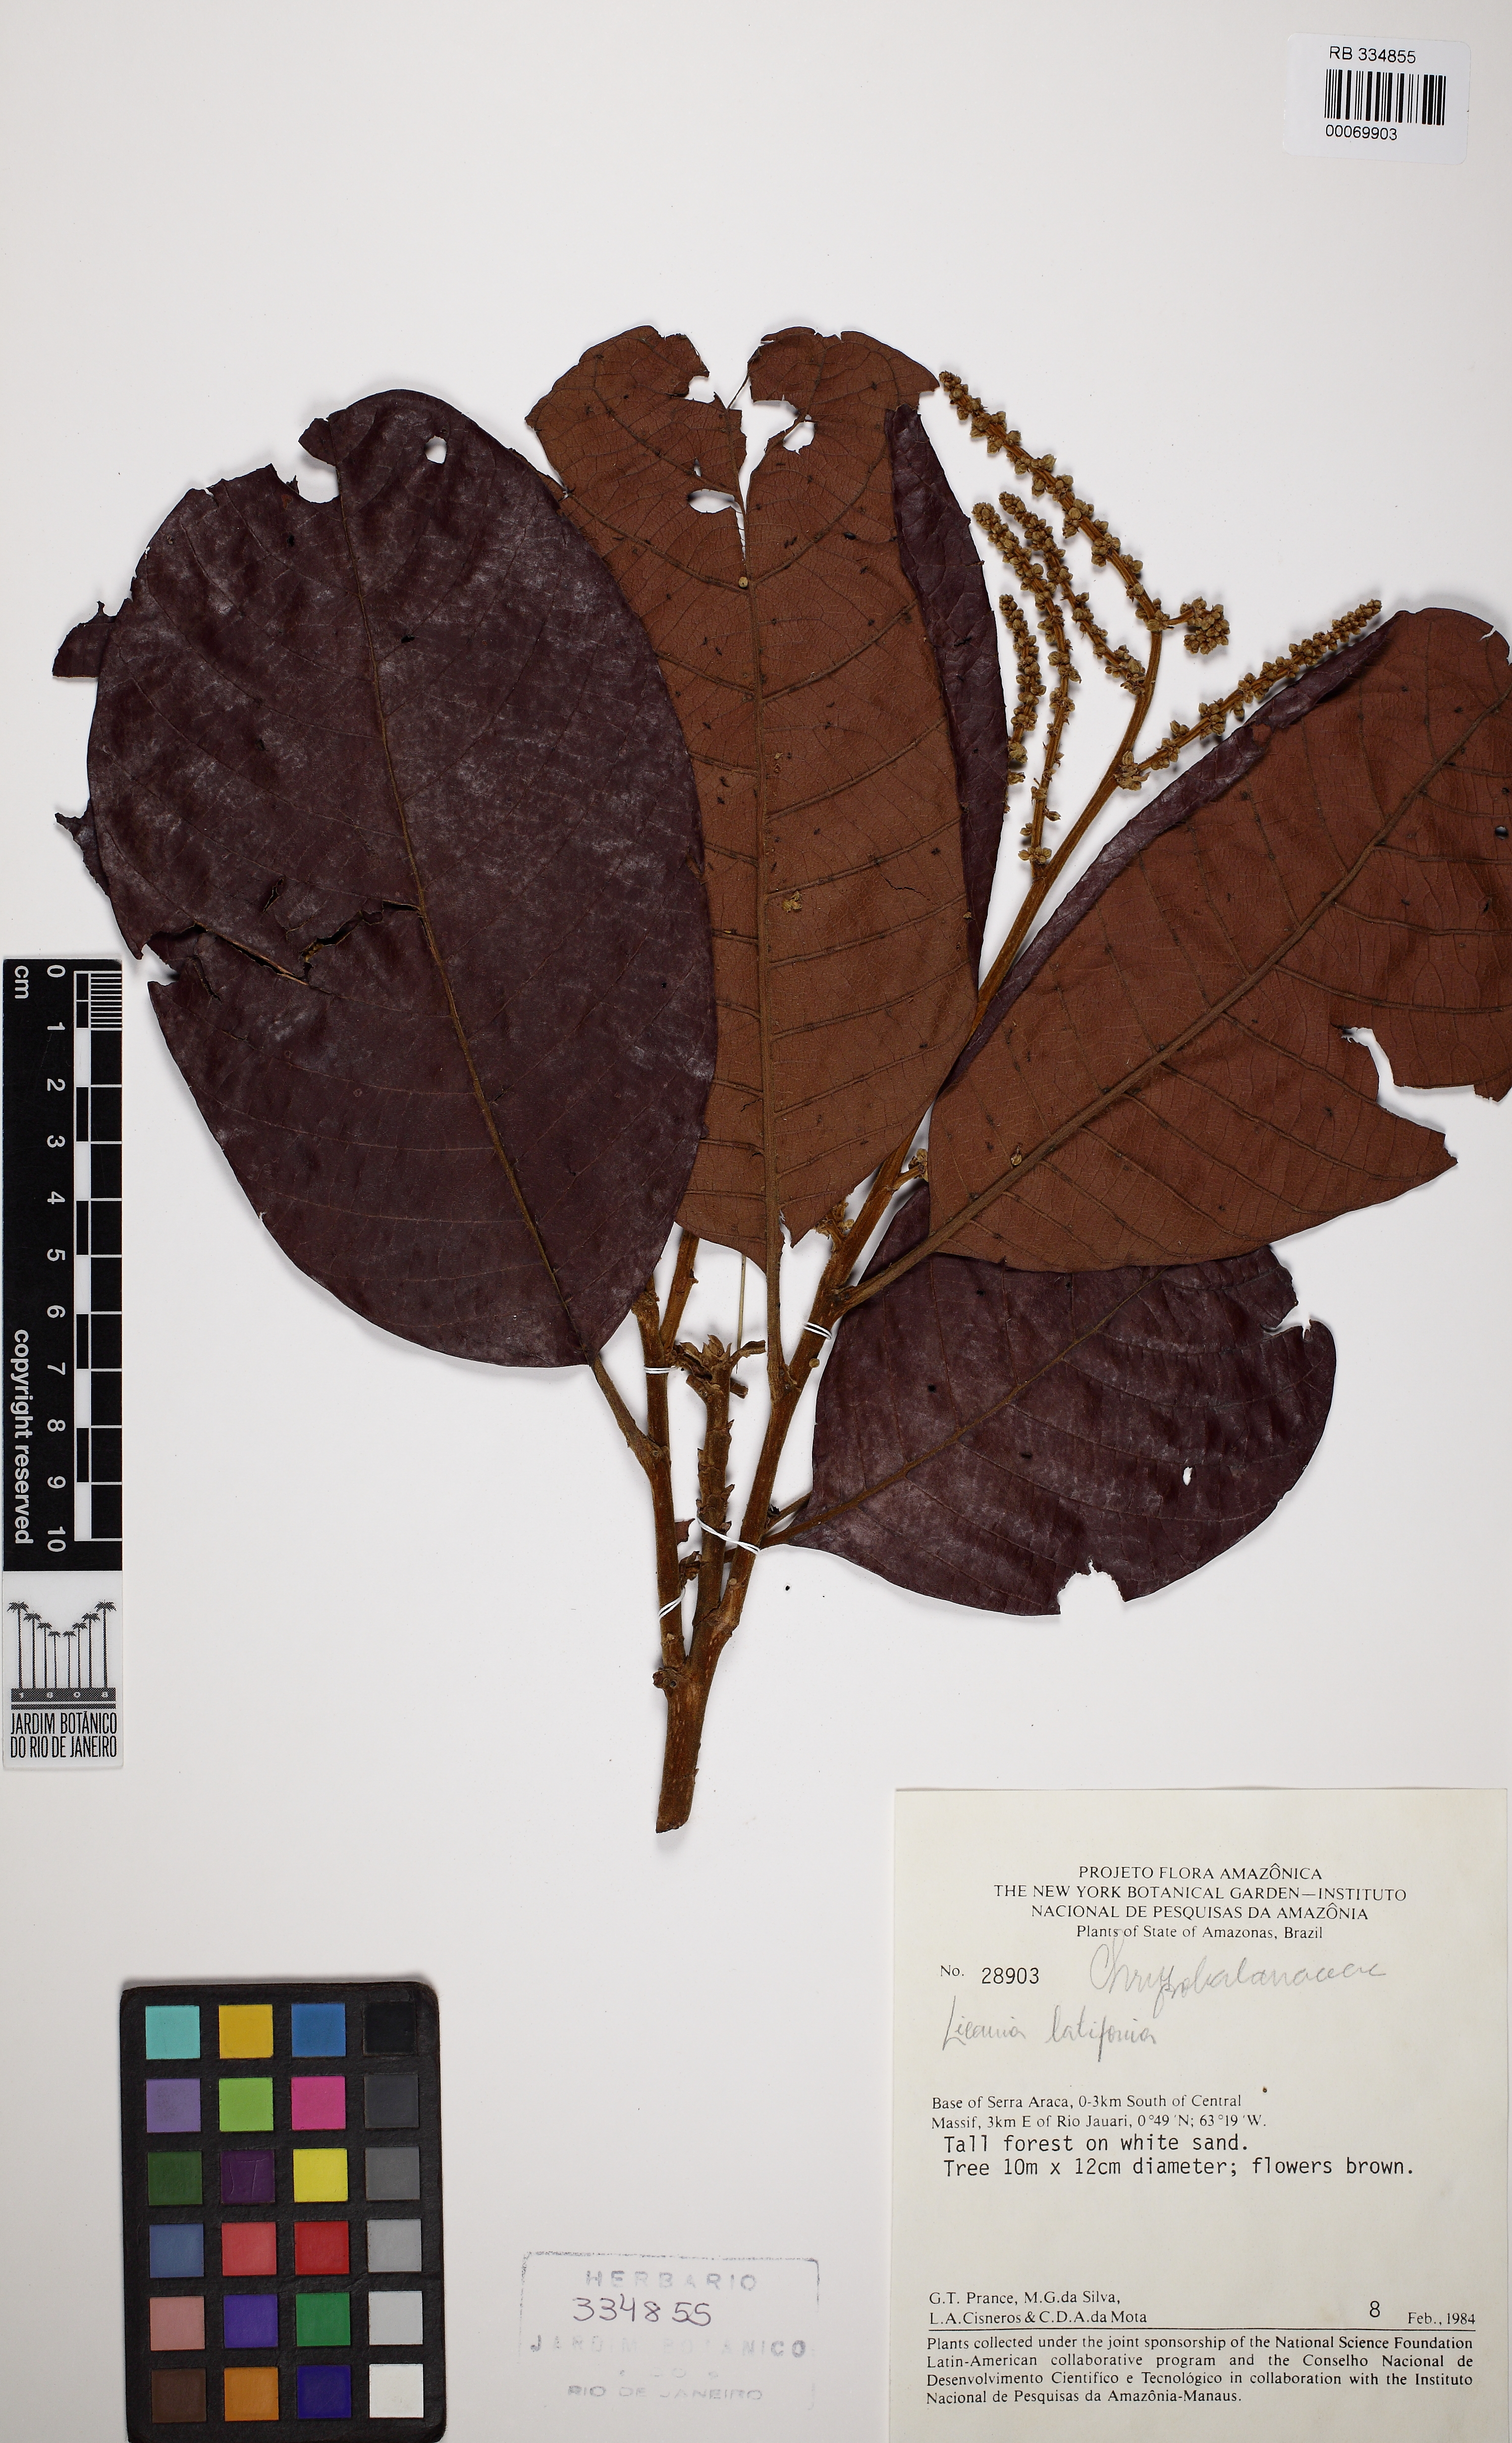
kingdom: Plantae
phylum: Tracheophyta
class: Magnoliopsida
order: Malpighiales
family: Chrysobalanaceae
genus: Hymenopus
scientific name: Hymenopus latifolius
